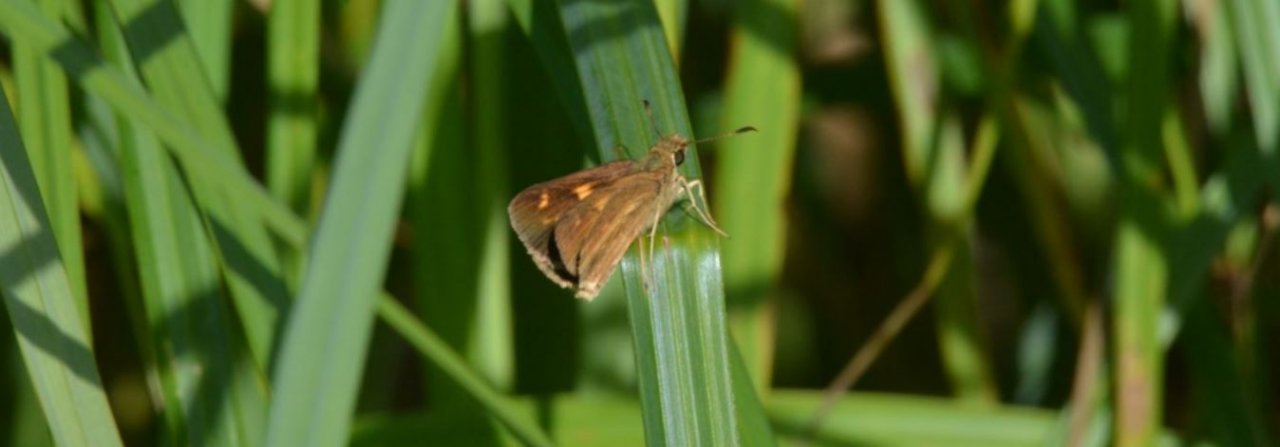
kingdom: Animalia
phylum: Arthropoda
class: Insecta
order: Lepidoptera
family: Hesperiidae
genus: Poanes
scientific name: Poanes viator
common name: Broad-winged Skipper
